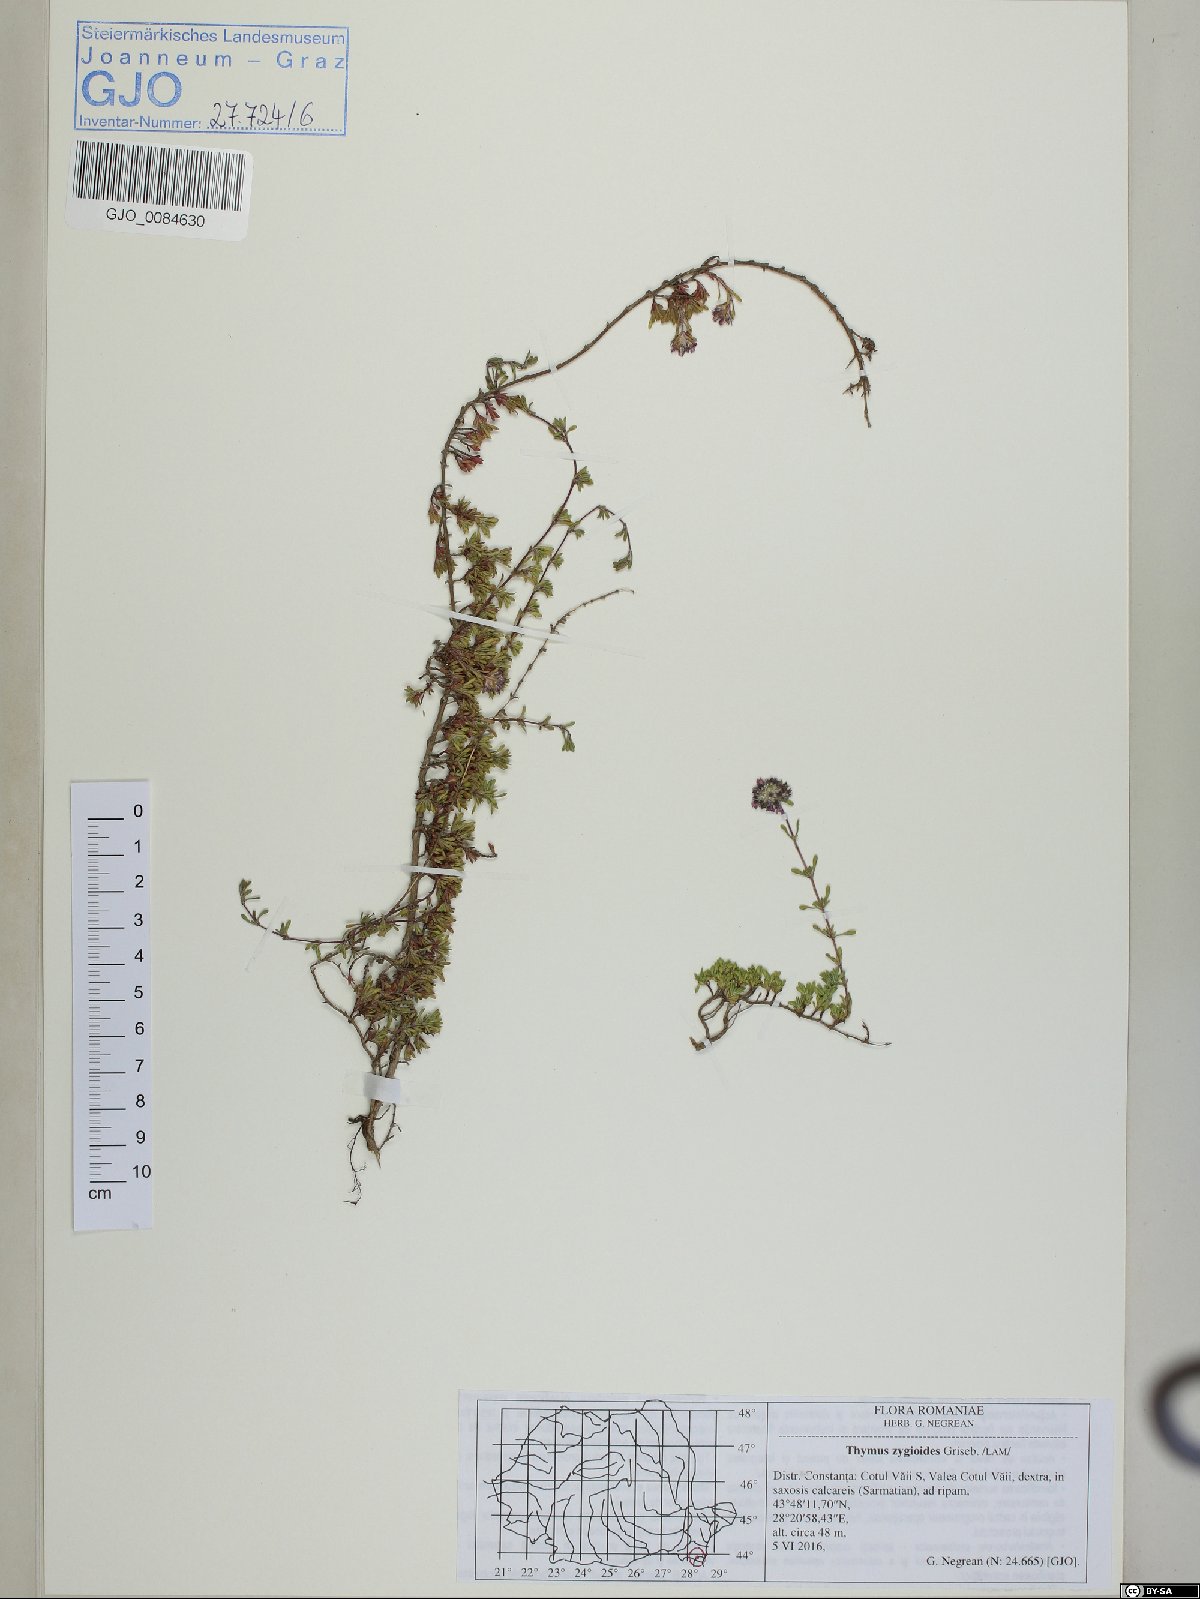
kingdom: Plantae
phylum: Tracheophyta
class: Magnoliopsida
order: Lamiales
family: Lamiaceae
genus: Thymus
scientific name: Thymus zygioides
